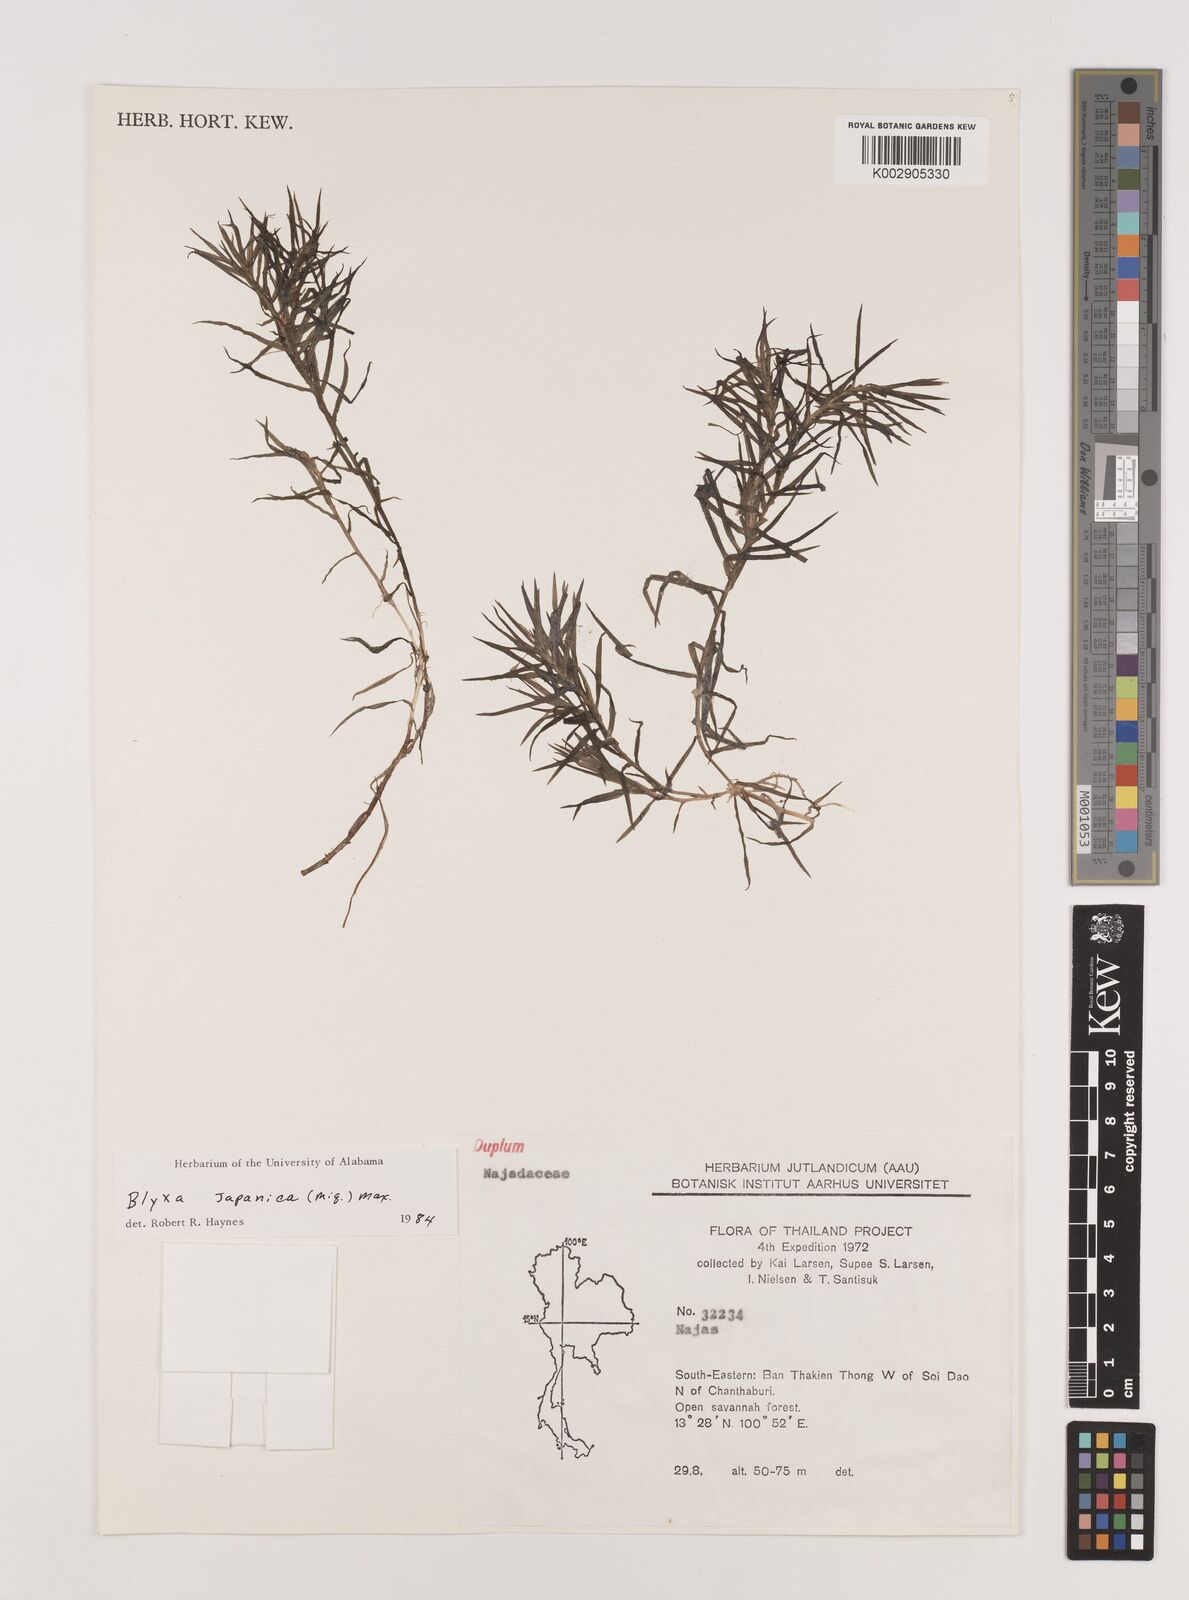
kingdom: Plantae
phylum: Tracheophyta
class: Liliopsida
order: Alismatales
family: Hydrocharitaceae
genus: Blyxa
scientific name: Blyxa japonica
